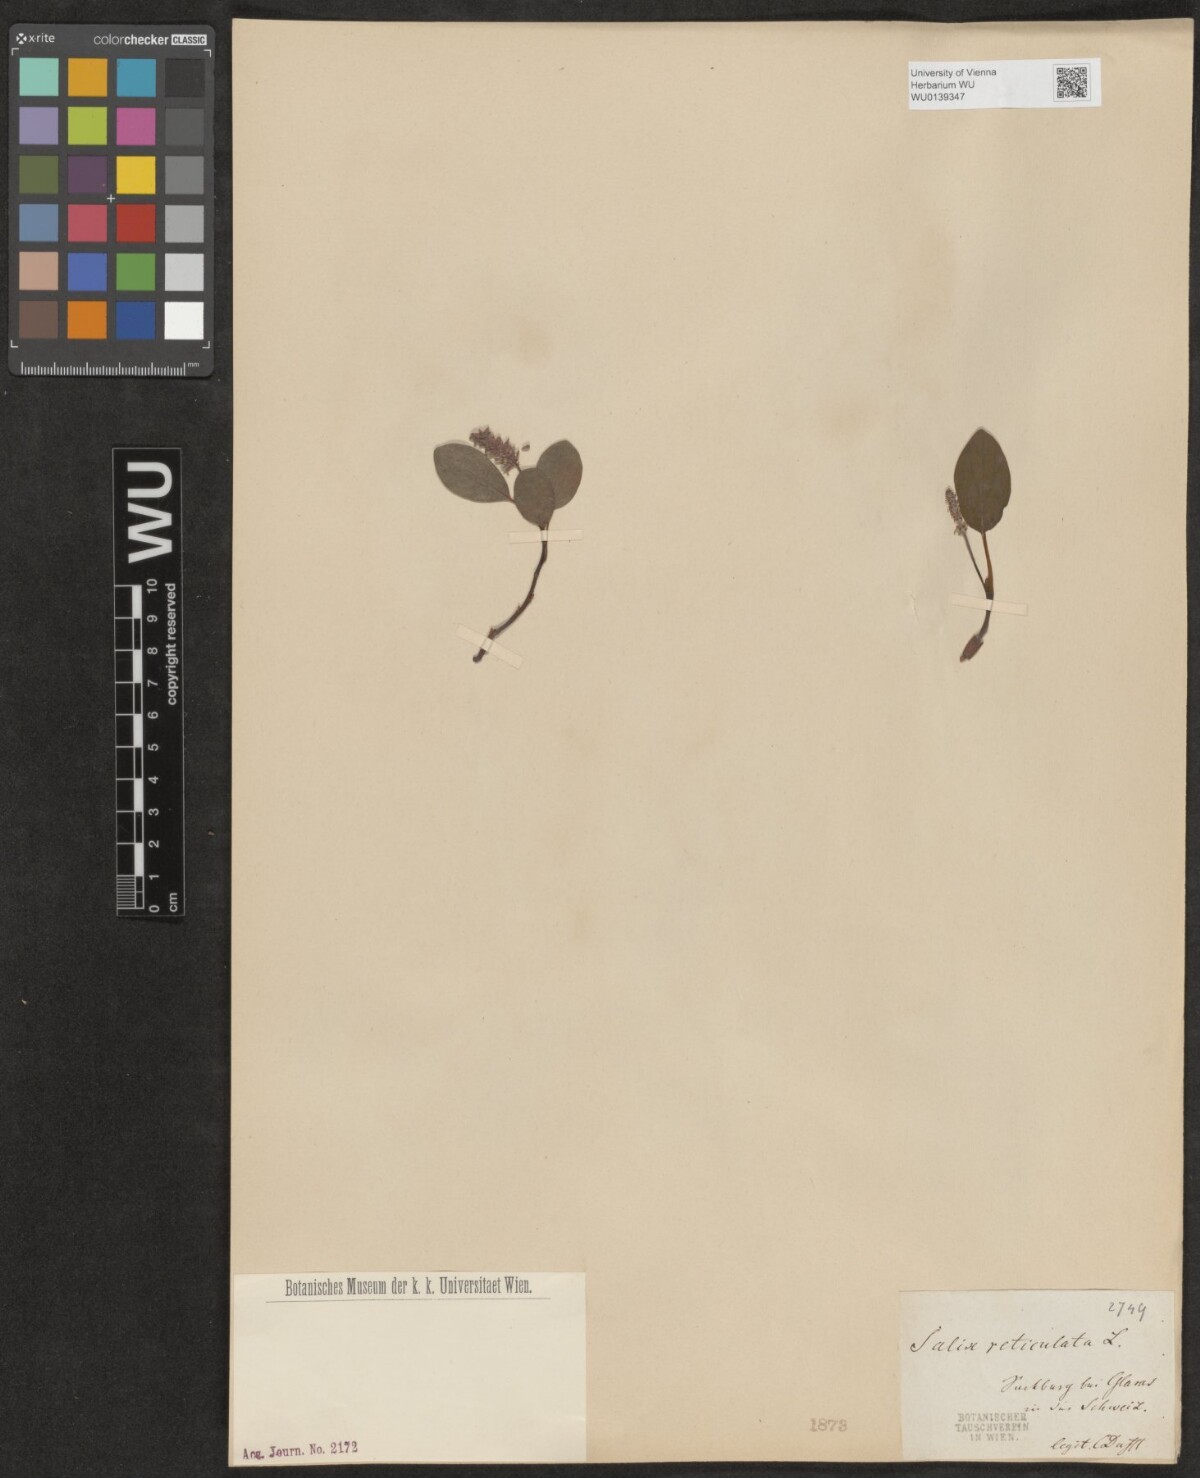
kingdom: Plantae
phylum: Tracheophyta
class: Magnoliopsida
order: Malpighiales
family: Salicaceae
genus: Salix
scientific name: Salix reticulata
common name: Net-leaved willow
